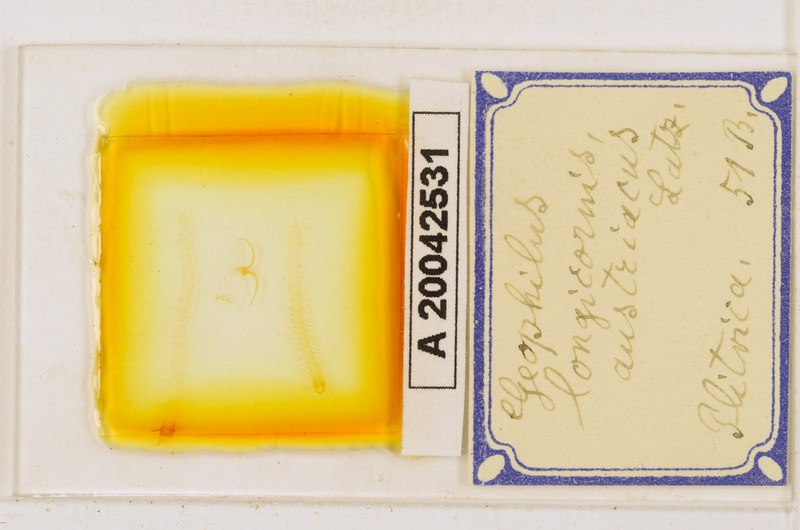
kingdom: Animalia
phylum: Arthropoda
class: Chilopoda
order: Geophilomorpha
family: Geophilidae
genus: Geophilus
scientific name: Geophilus flavus
